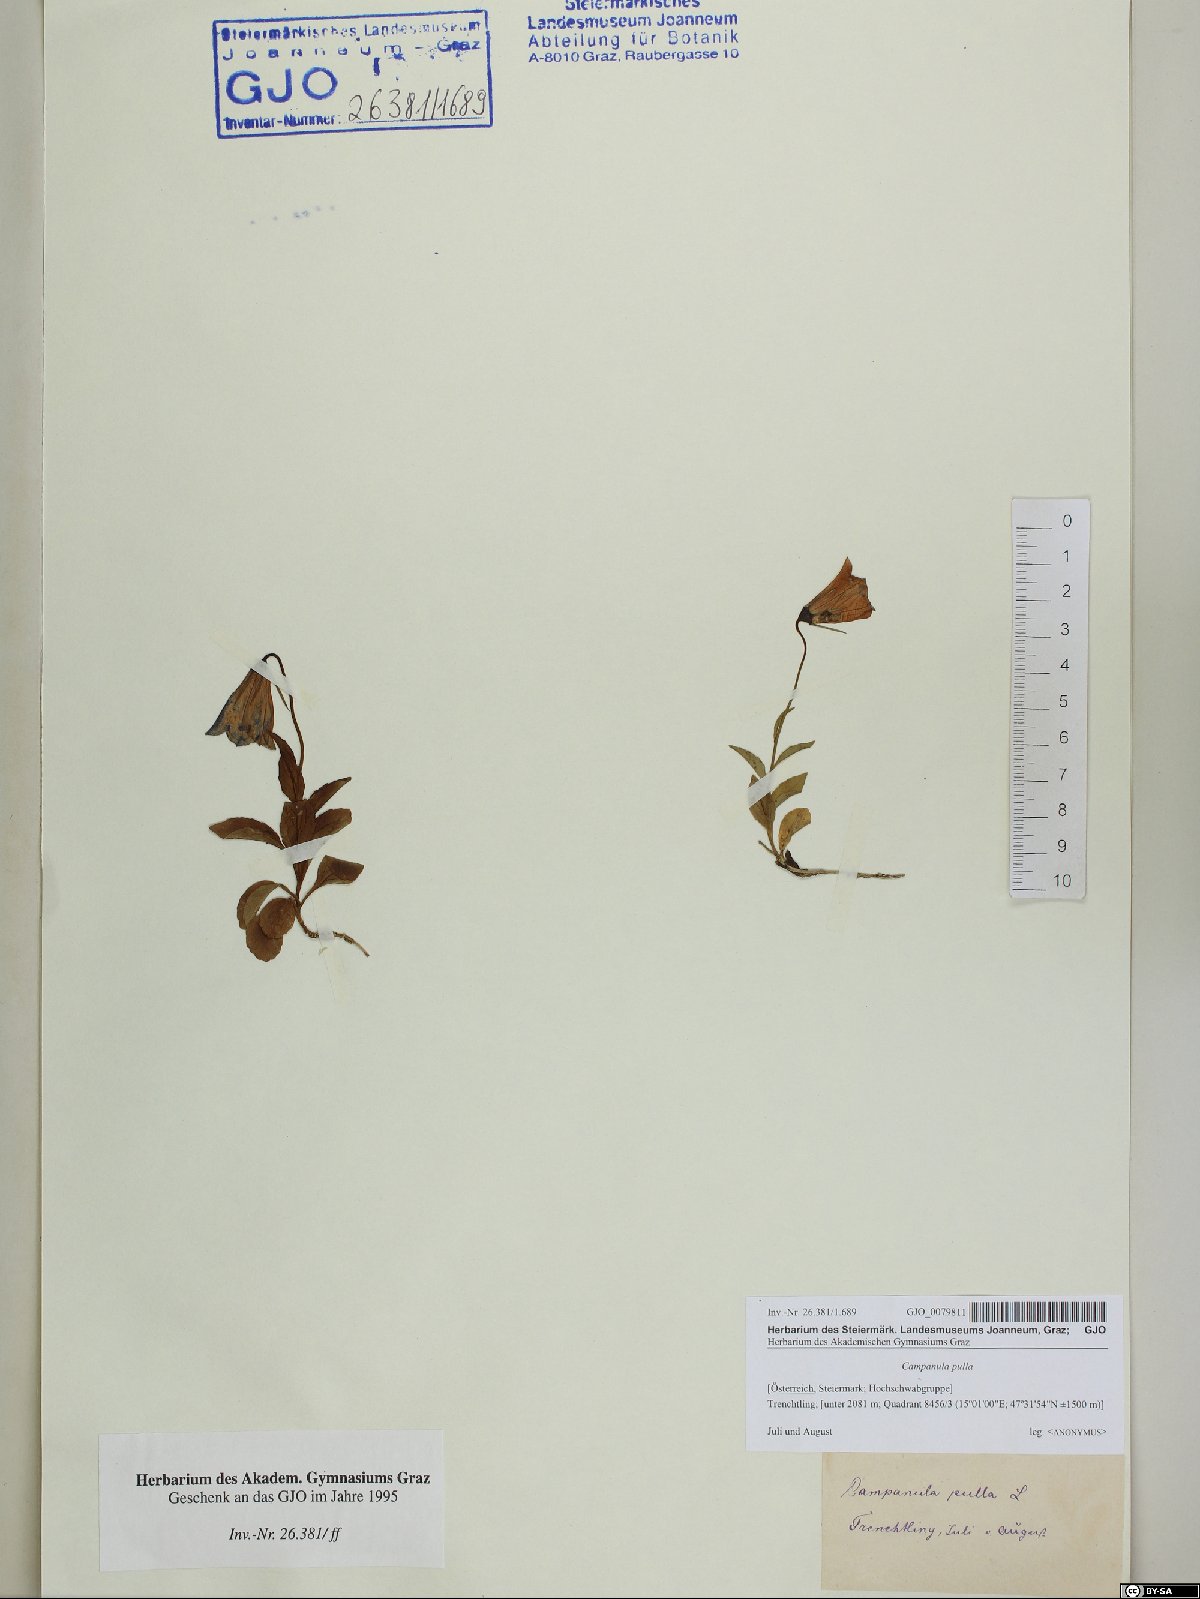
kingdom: Plantae
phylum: Tracheophyta
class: Magnoliopsida
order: Asterales
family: Campanulaceae
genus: Campanula
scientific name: Campanula pulla
